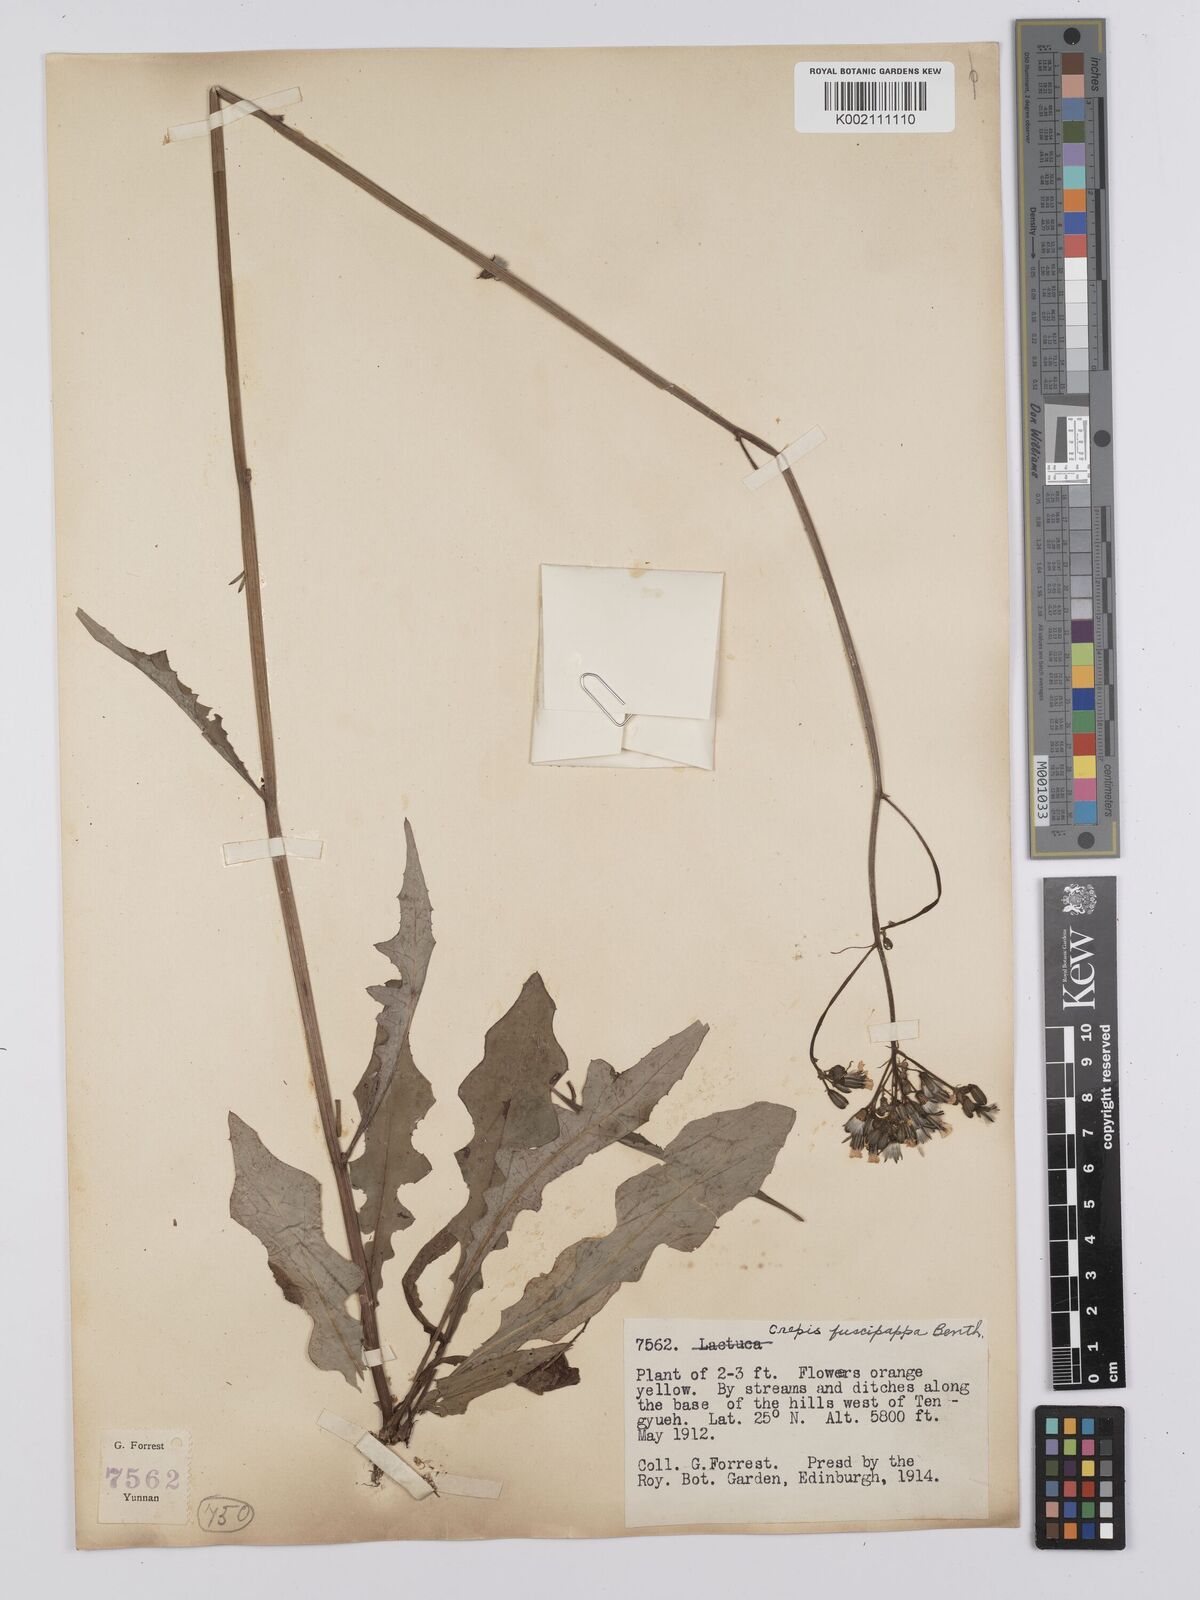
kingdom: Plantae
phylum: Tracheophyta
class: Magnoliopsida
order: Asterales
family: Asteraceae
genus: Youngia
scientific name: Youngia cineripappa
